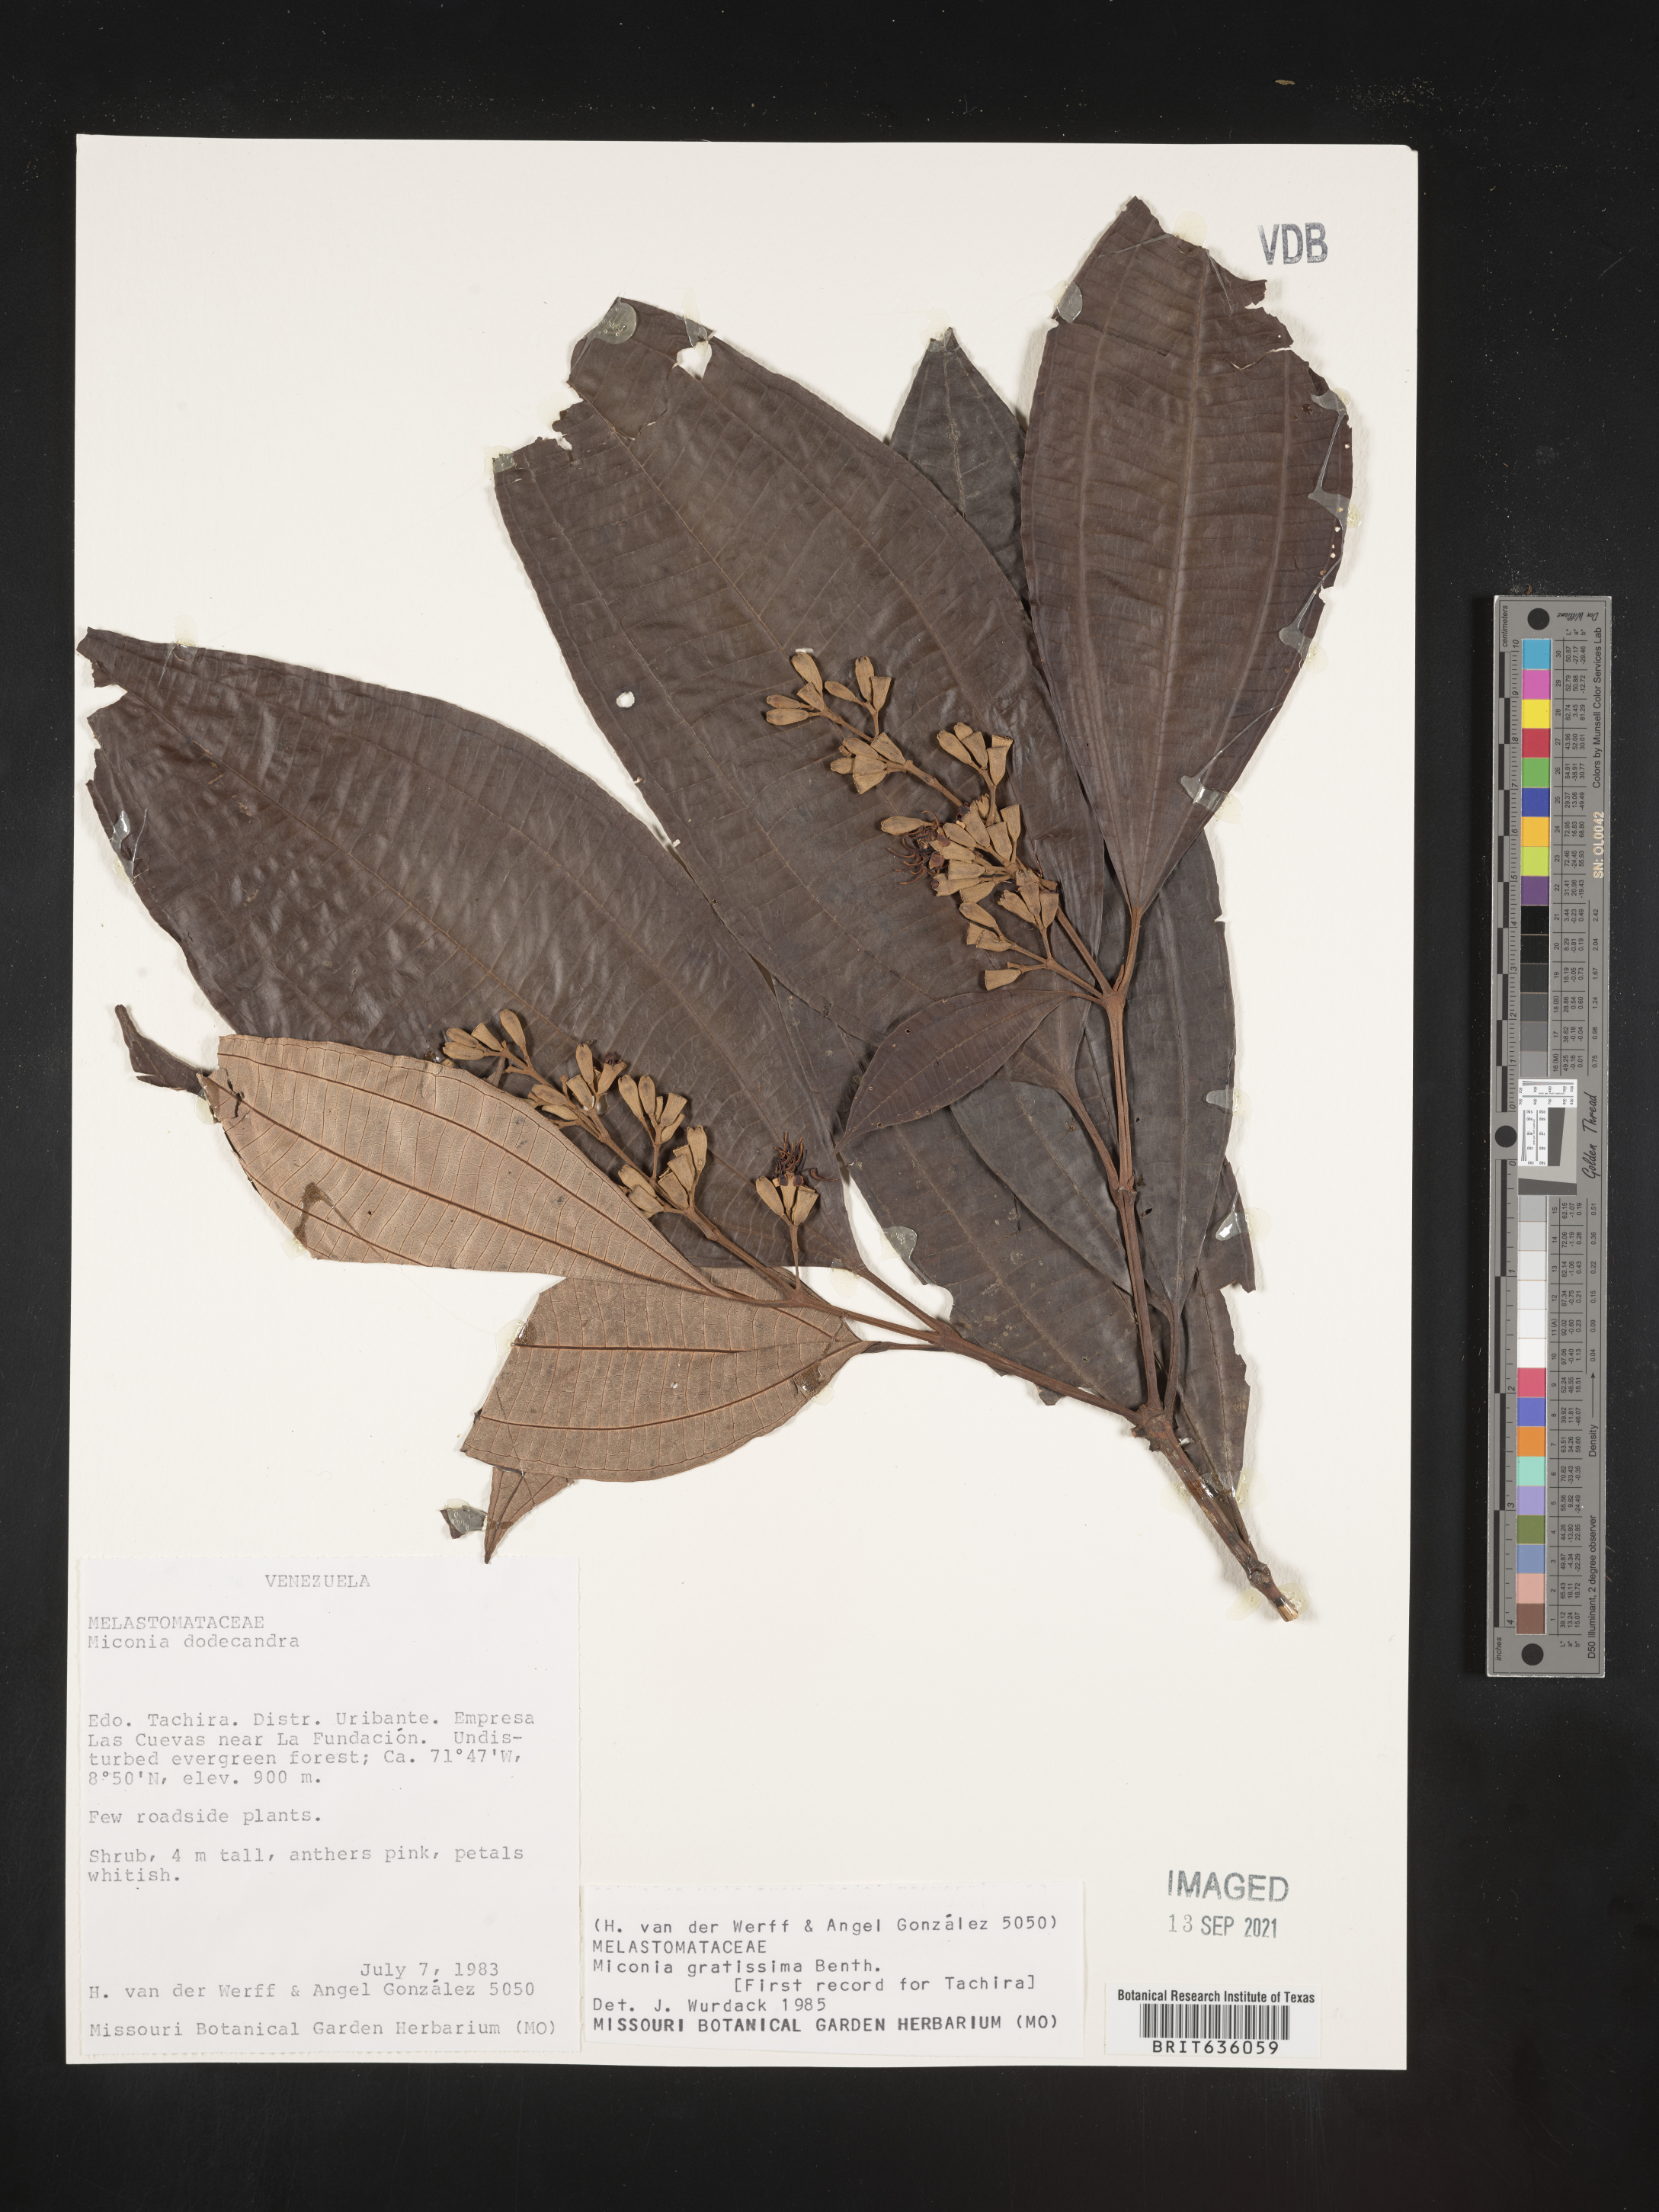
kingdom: Plantae
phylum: Tracheophyta
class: Magnoliopsida
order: Myrtales
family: Melastomataceae
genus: Miconia
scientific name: Miconia
